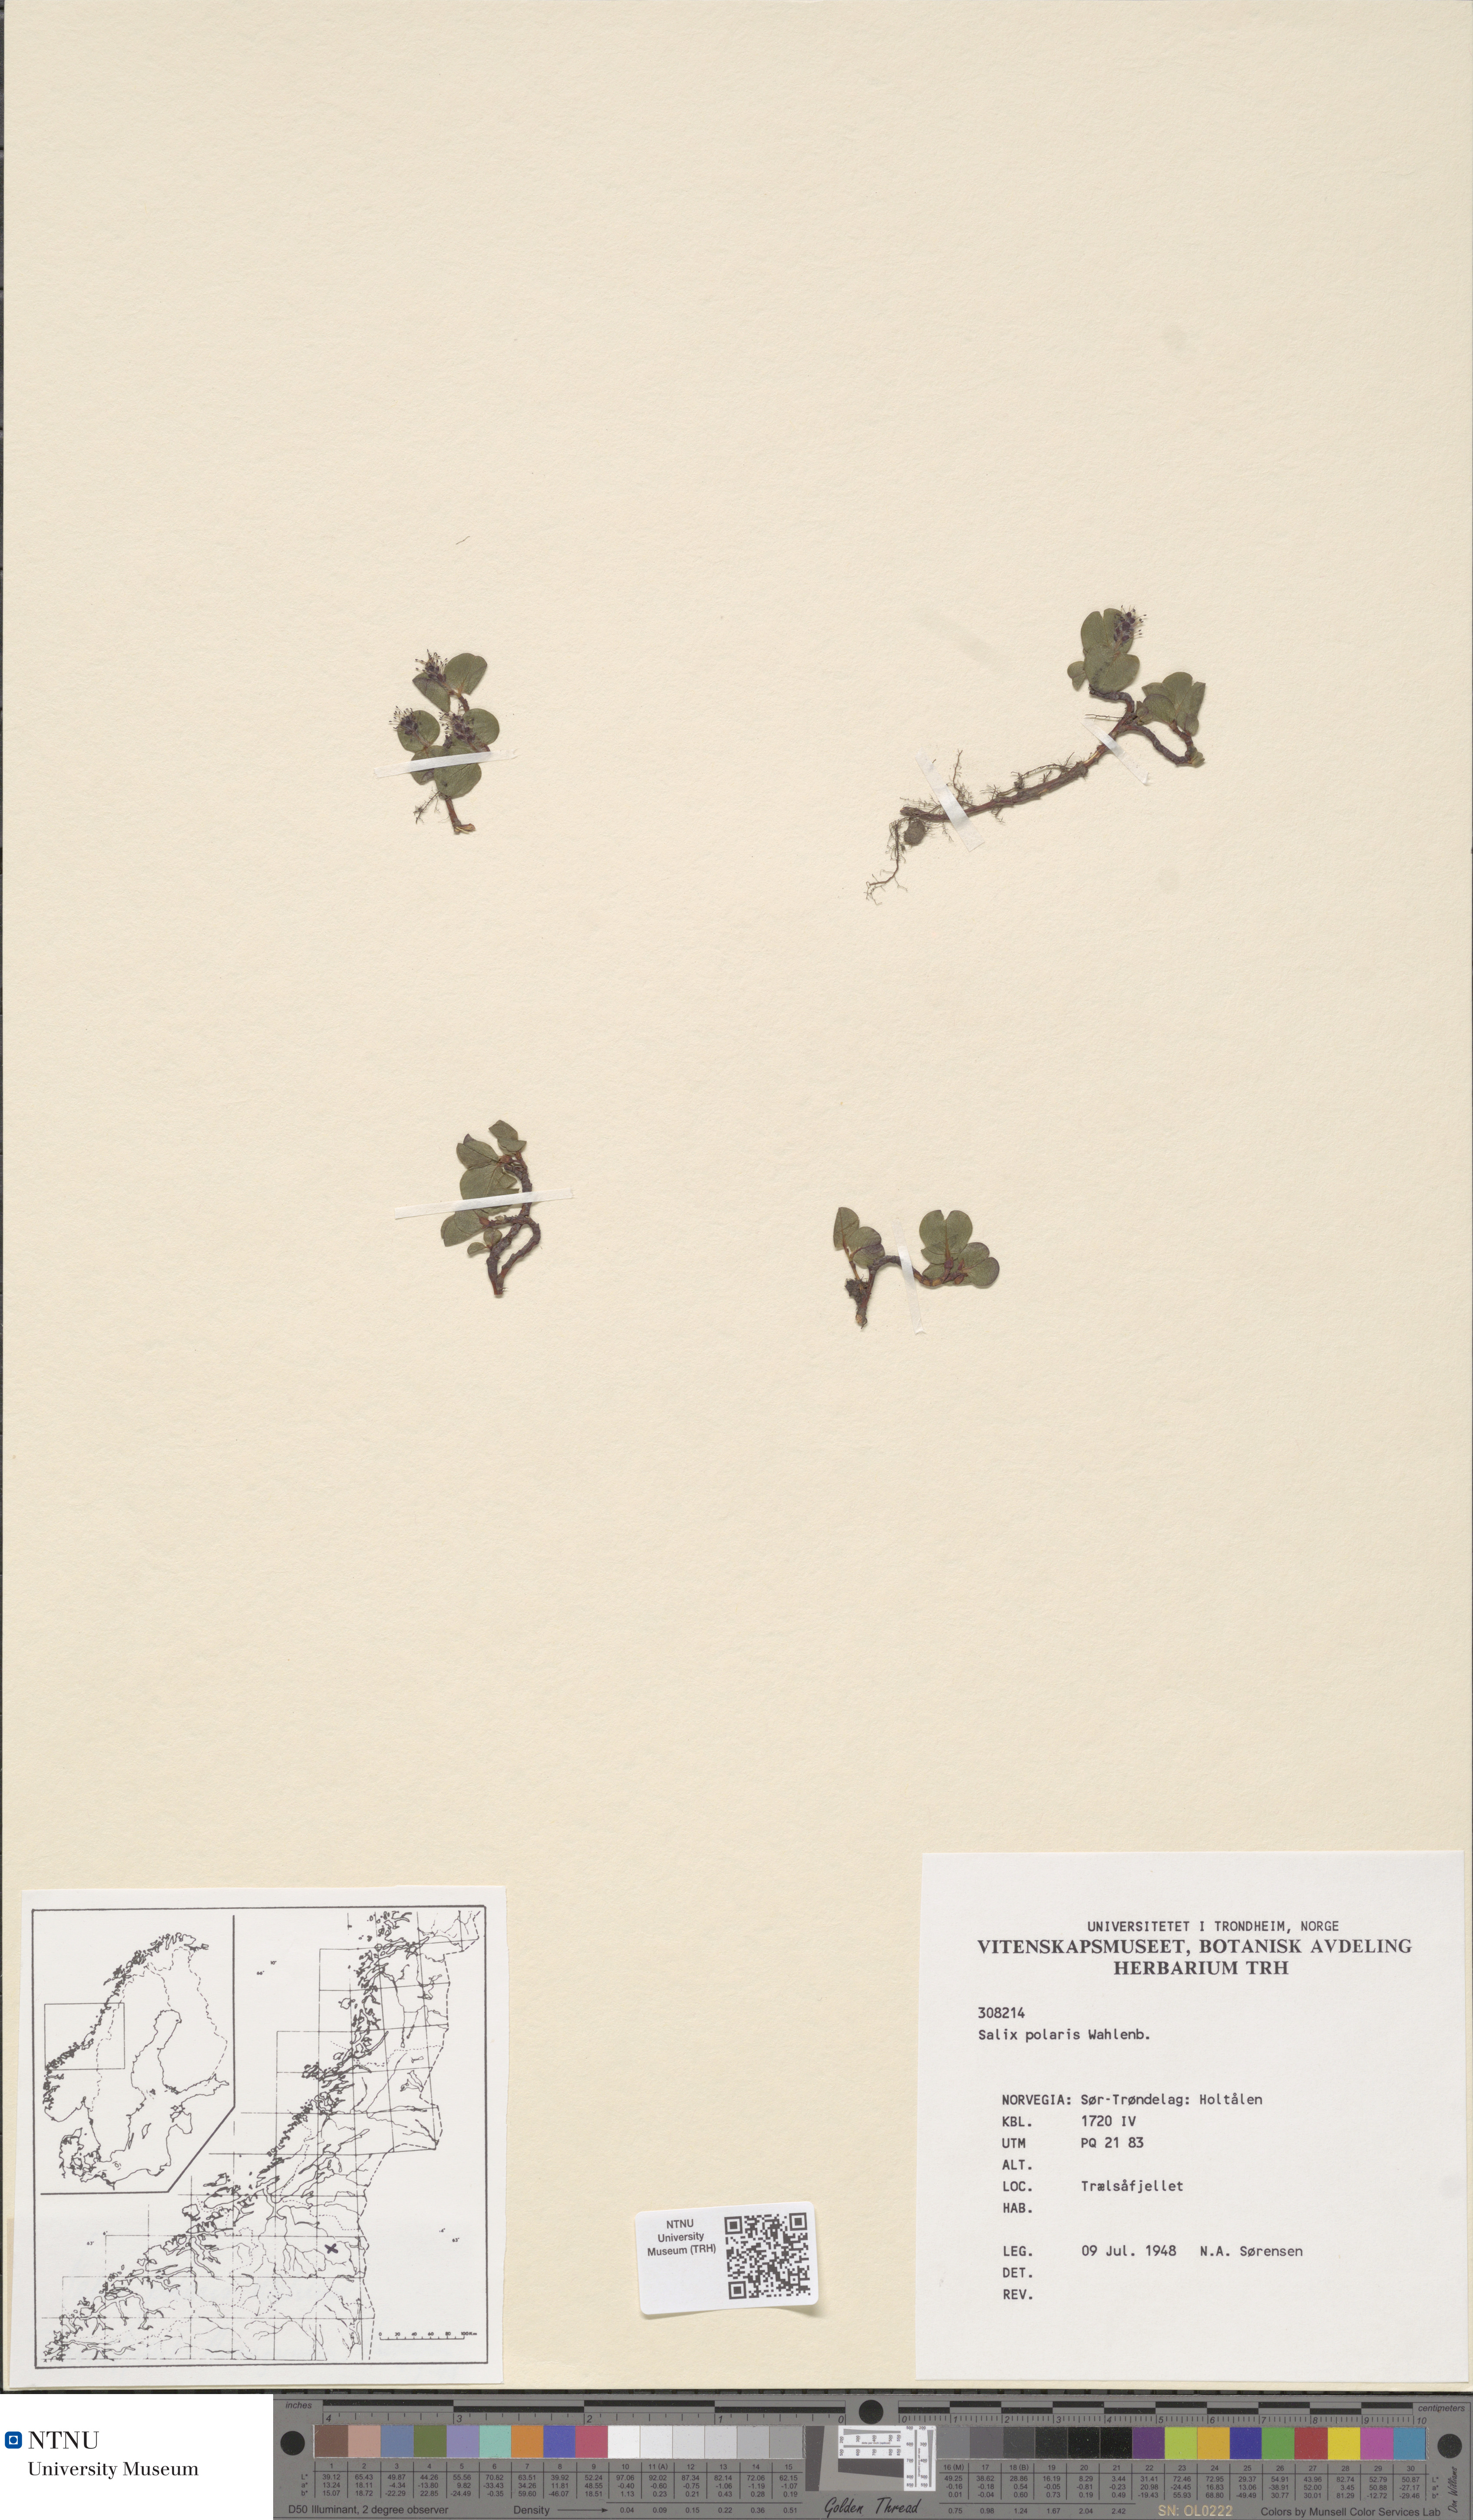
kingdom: Plantae
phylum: Tracheophyta
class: Magnoliopsida
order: Malpighiales
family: Salicaceae
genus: Salix
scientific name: Salix polaris
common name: Polar willow
